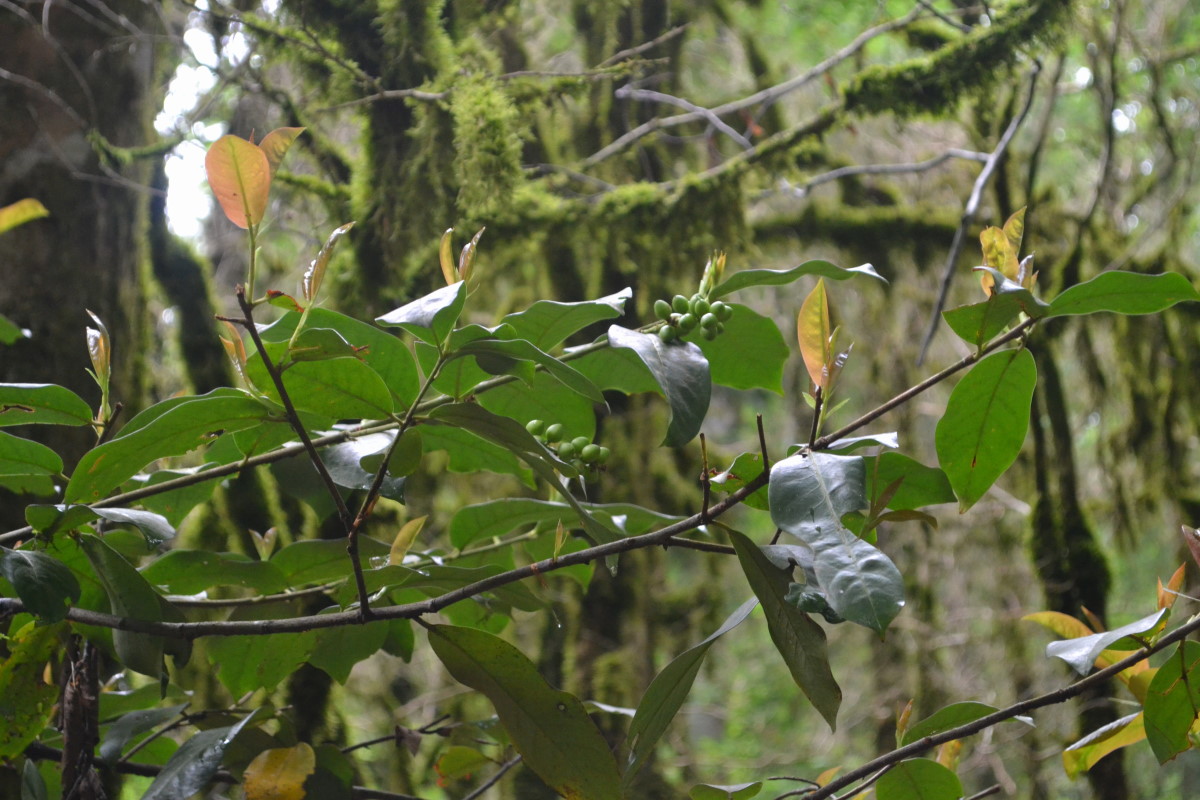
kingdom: Plantae
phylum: Tracheophyta
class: Magnoliopsida
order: Rosales
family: Rosaceae
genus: Prunus
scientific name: Prunus
